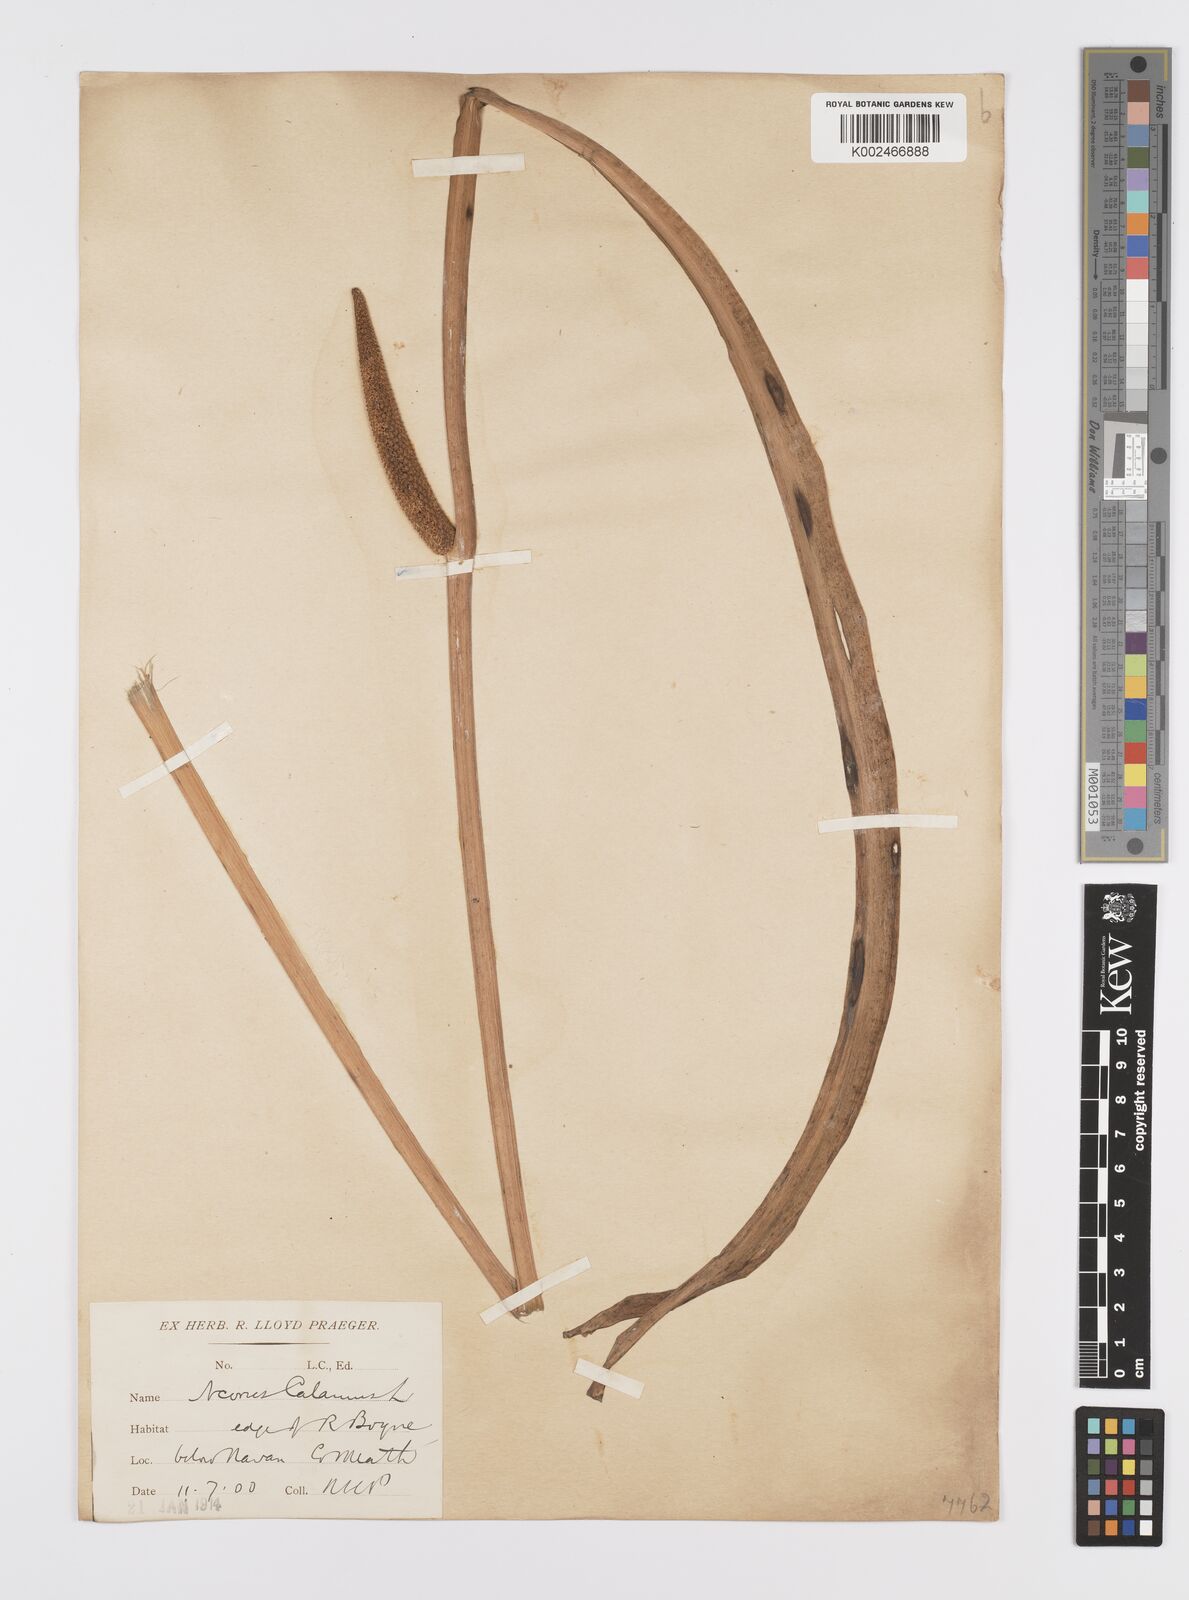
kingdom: Plantae
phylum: Tracheophyta
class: Liliopsida
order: Acorales
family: Acoraceae
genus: Acorus
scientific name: Acorus calamus
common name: Sweet-flag
